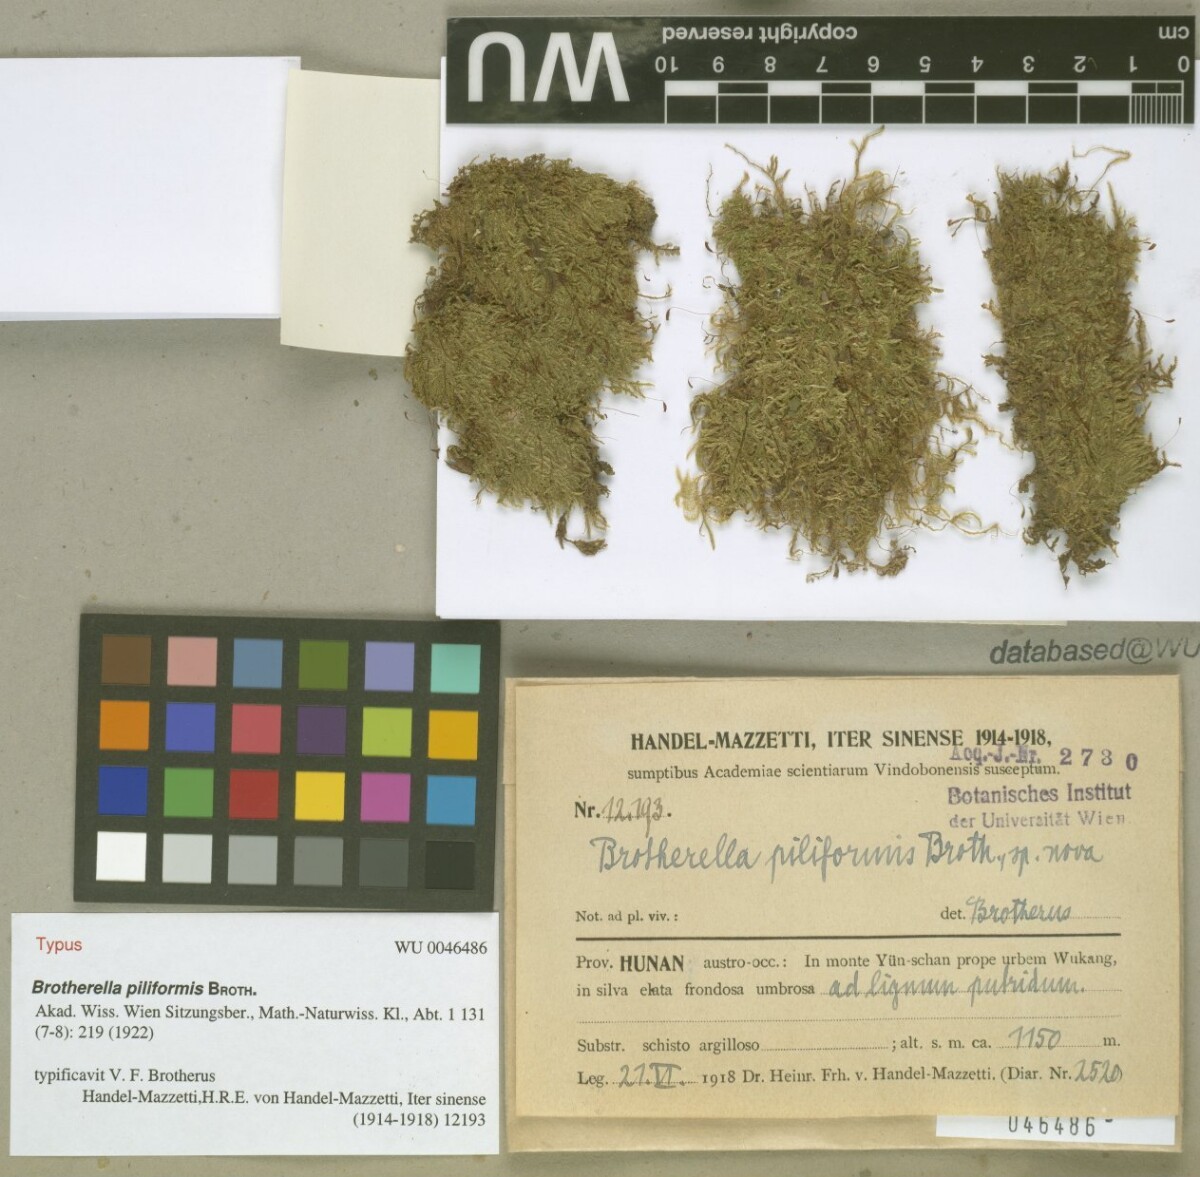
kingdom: Plantae
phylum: Bryophyta
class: Bryopsida
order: Hypnales
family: Pylaisiadelphaceae
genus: Wijkia
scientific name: Wijkia hornschuchii
